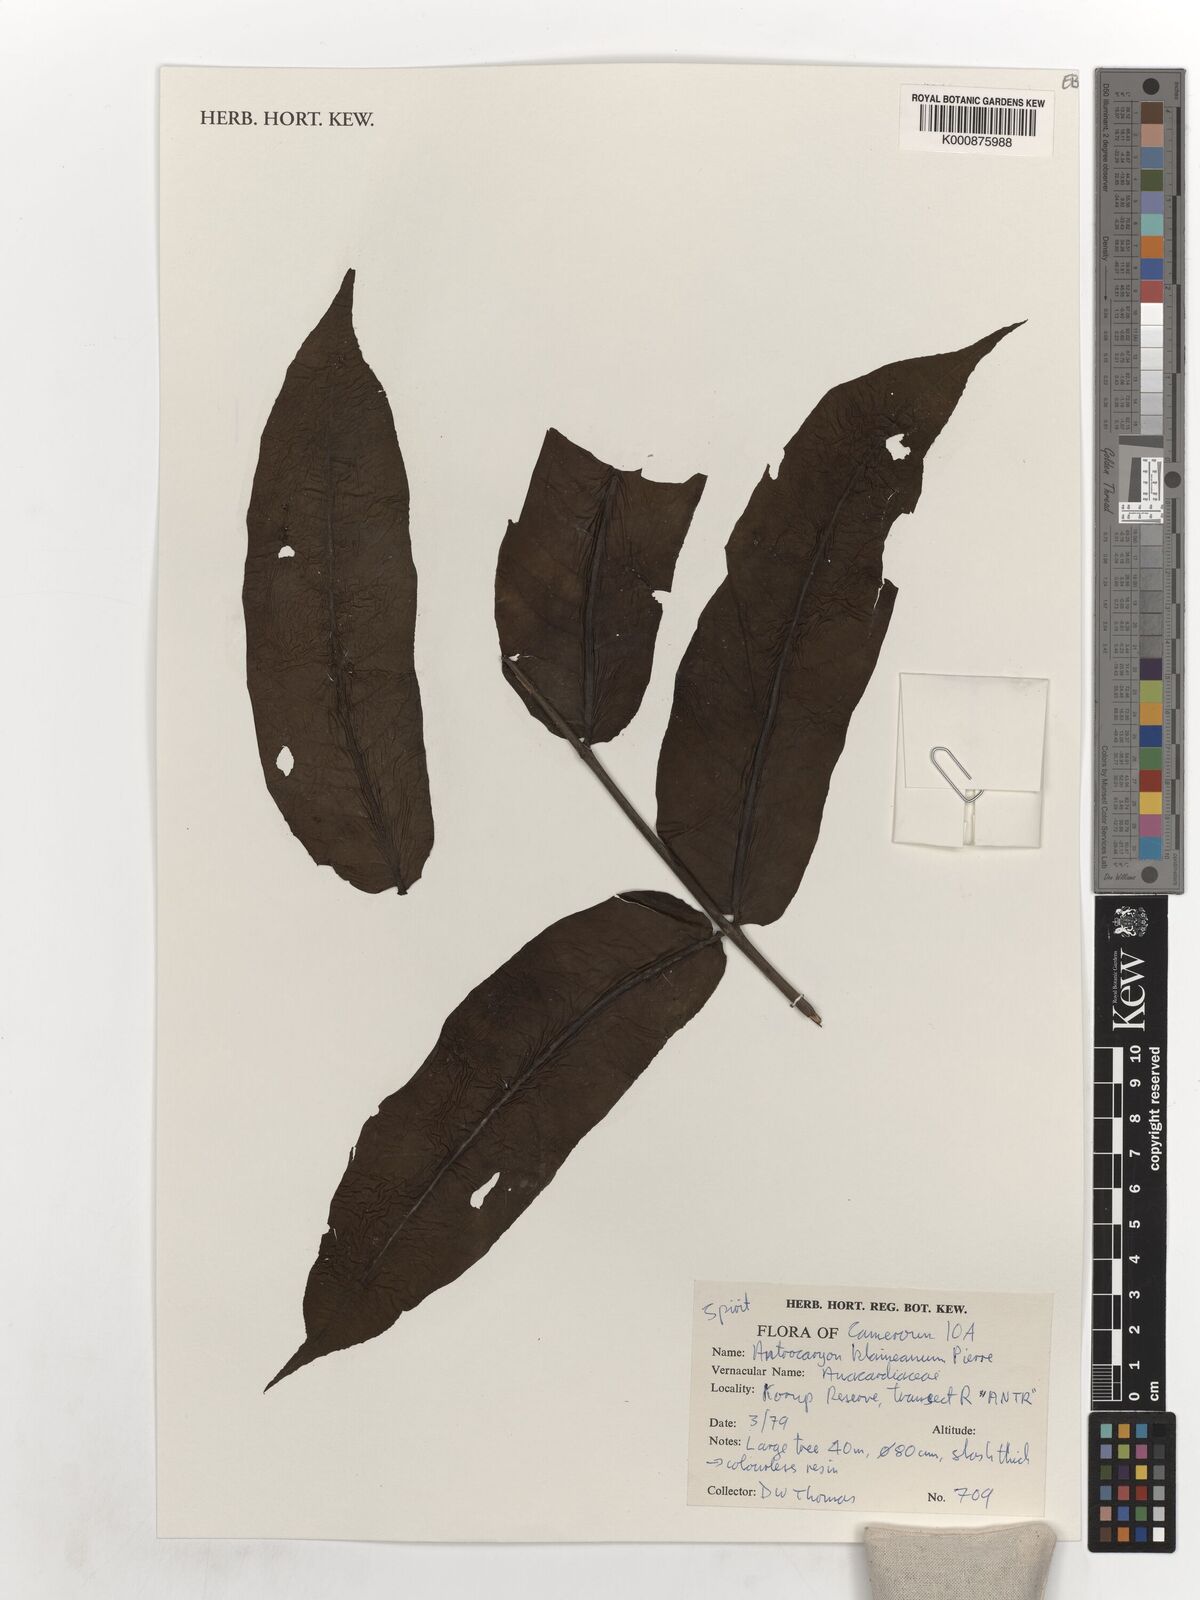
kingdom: Plantae
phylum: Tracheophyta
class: Magnoliopsida
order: Sapindales
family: Anacardiaceae
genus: Antrocaryon
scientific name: Antrocaryon klaineanum
